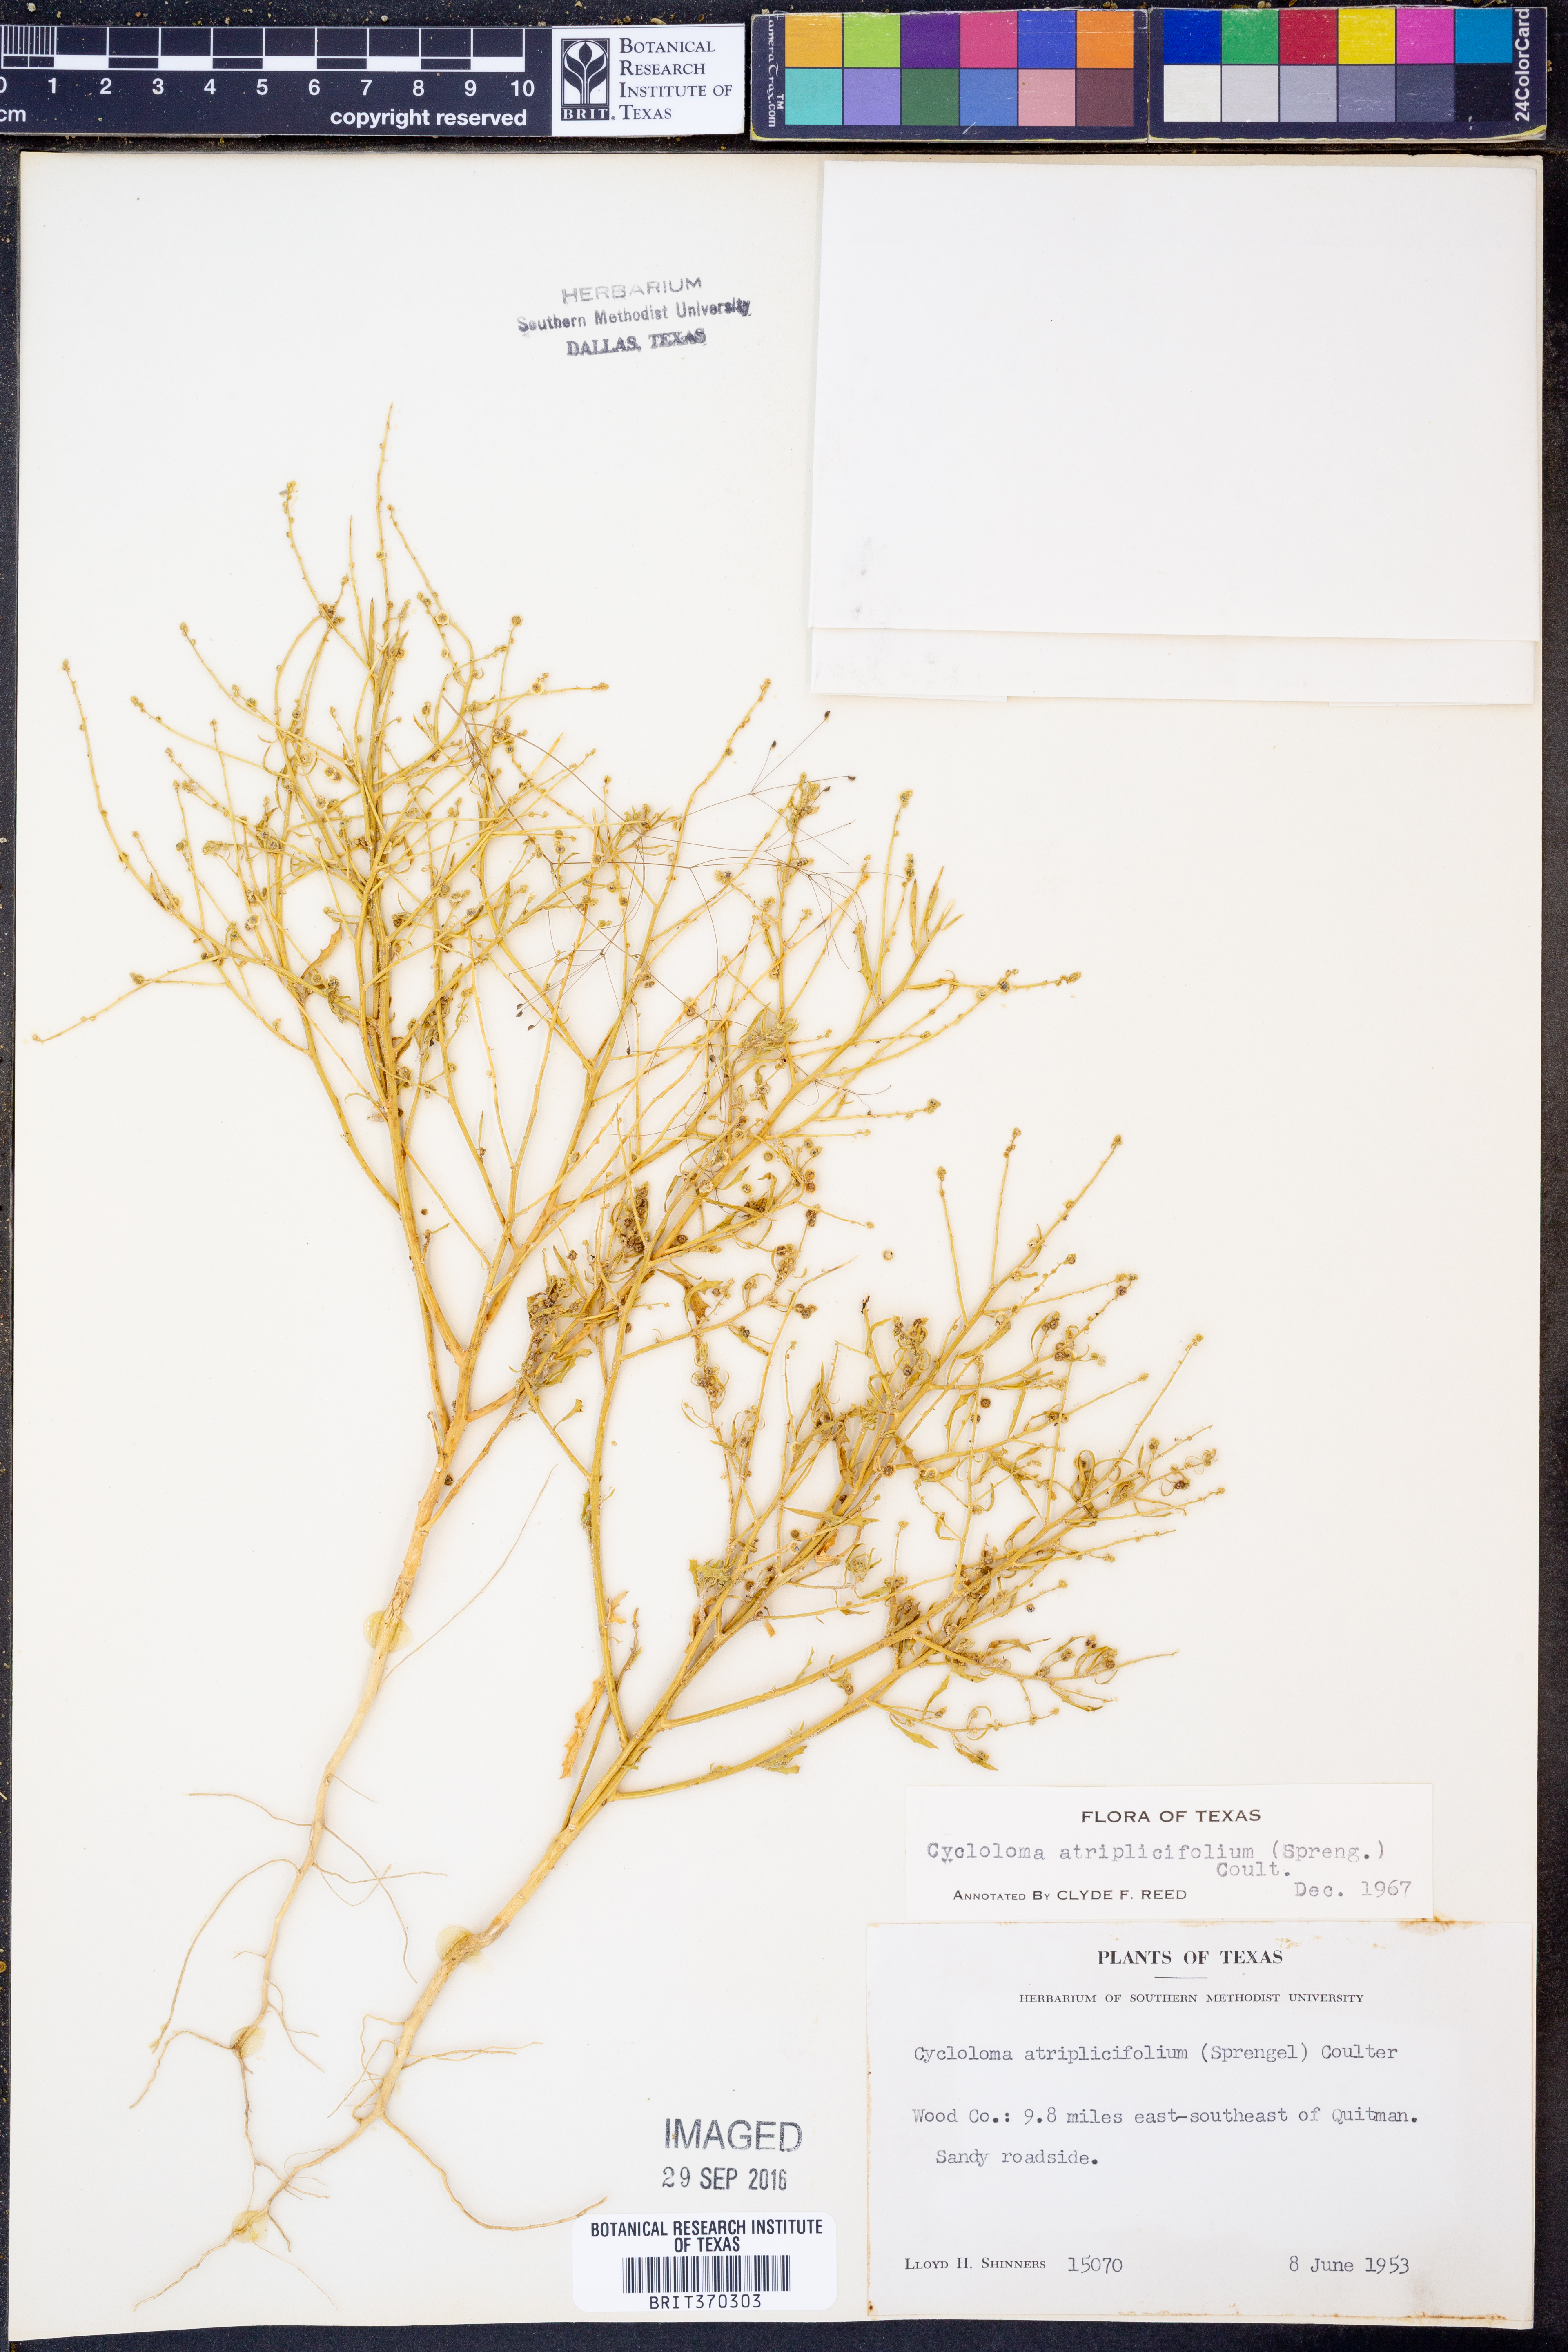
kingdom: Plantae
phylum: Tracheophyta
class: Magnoliopsida
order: Caryophyllales
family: Amaranthaceae
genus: Dysphania
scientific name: Dysphania atriplicifolia
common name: Plains tumbleweed
